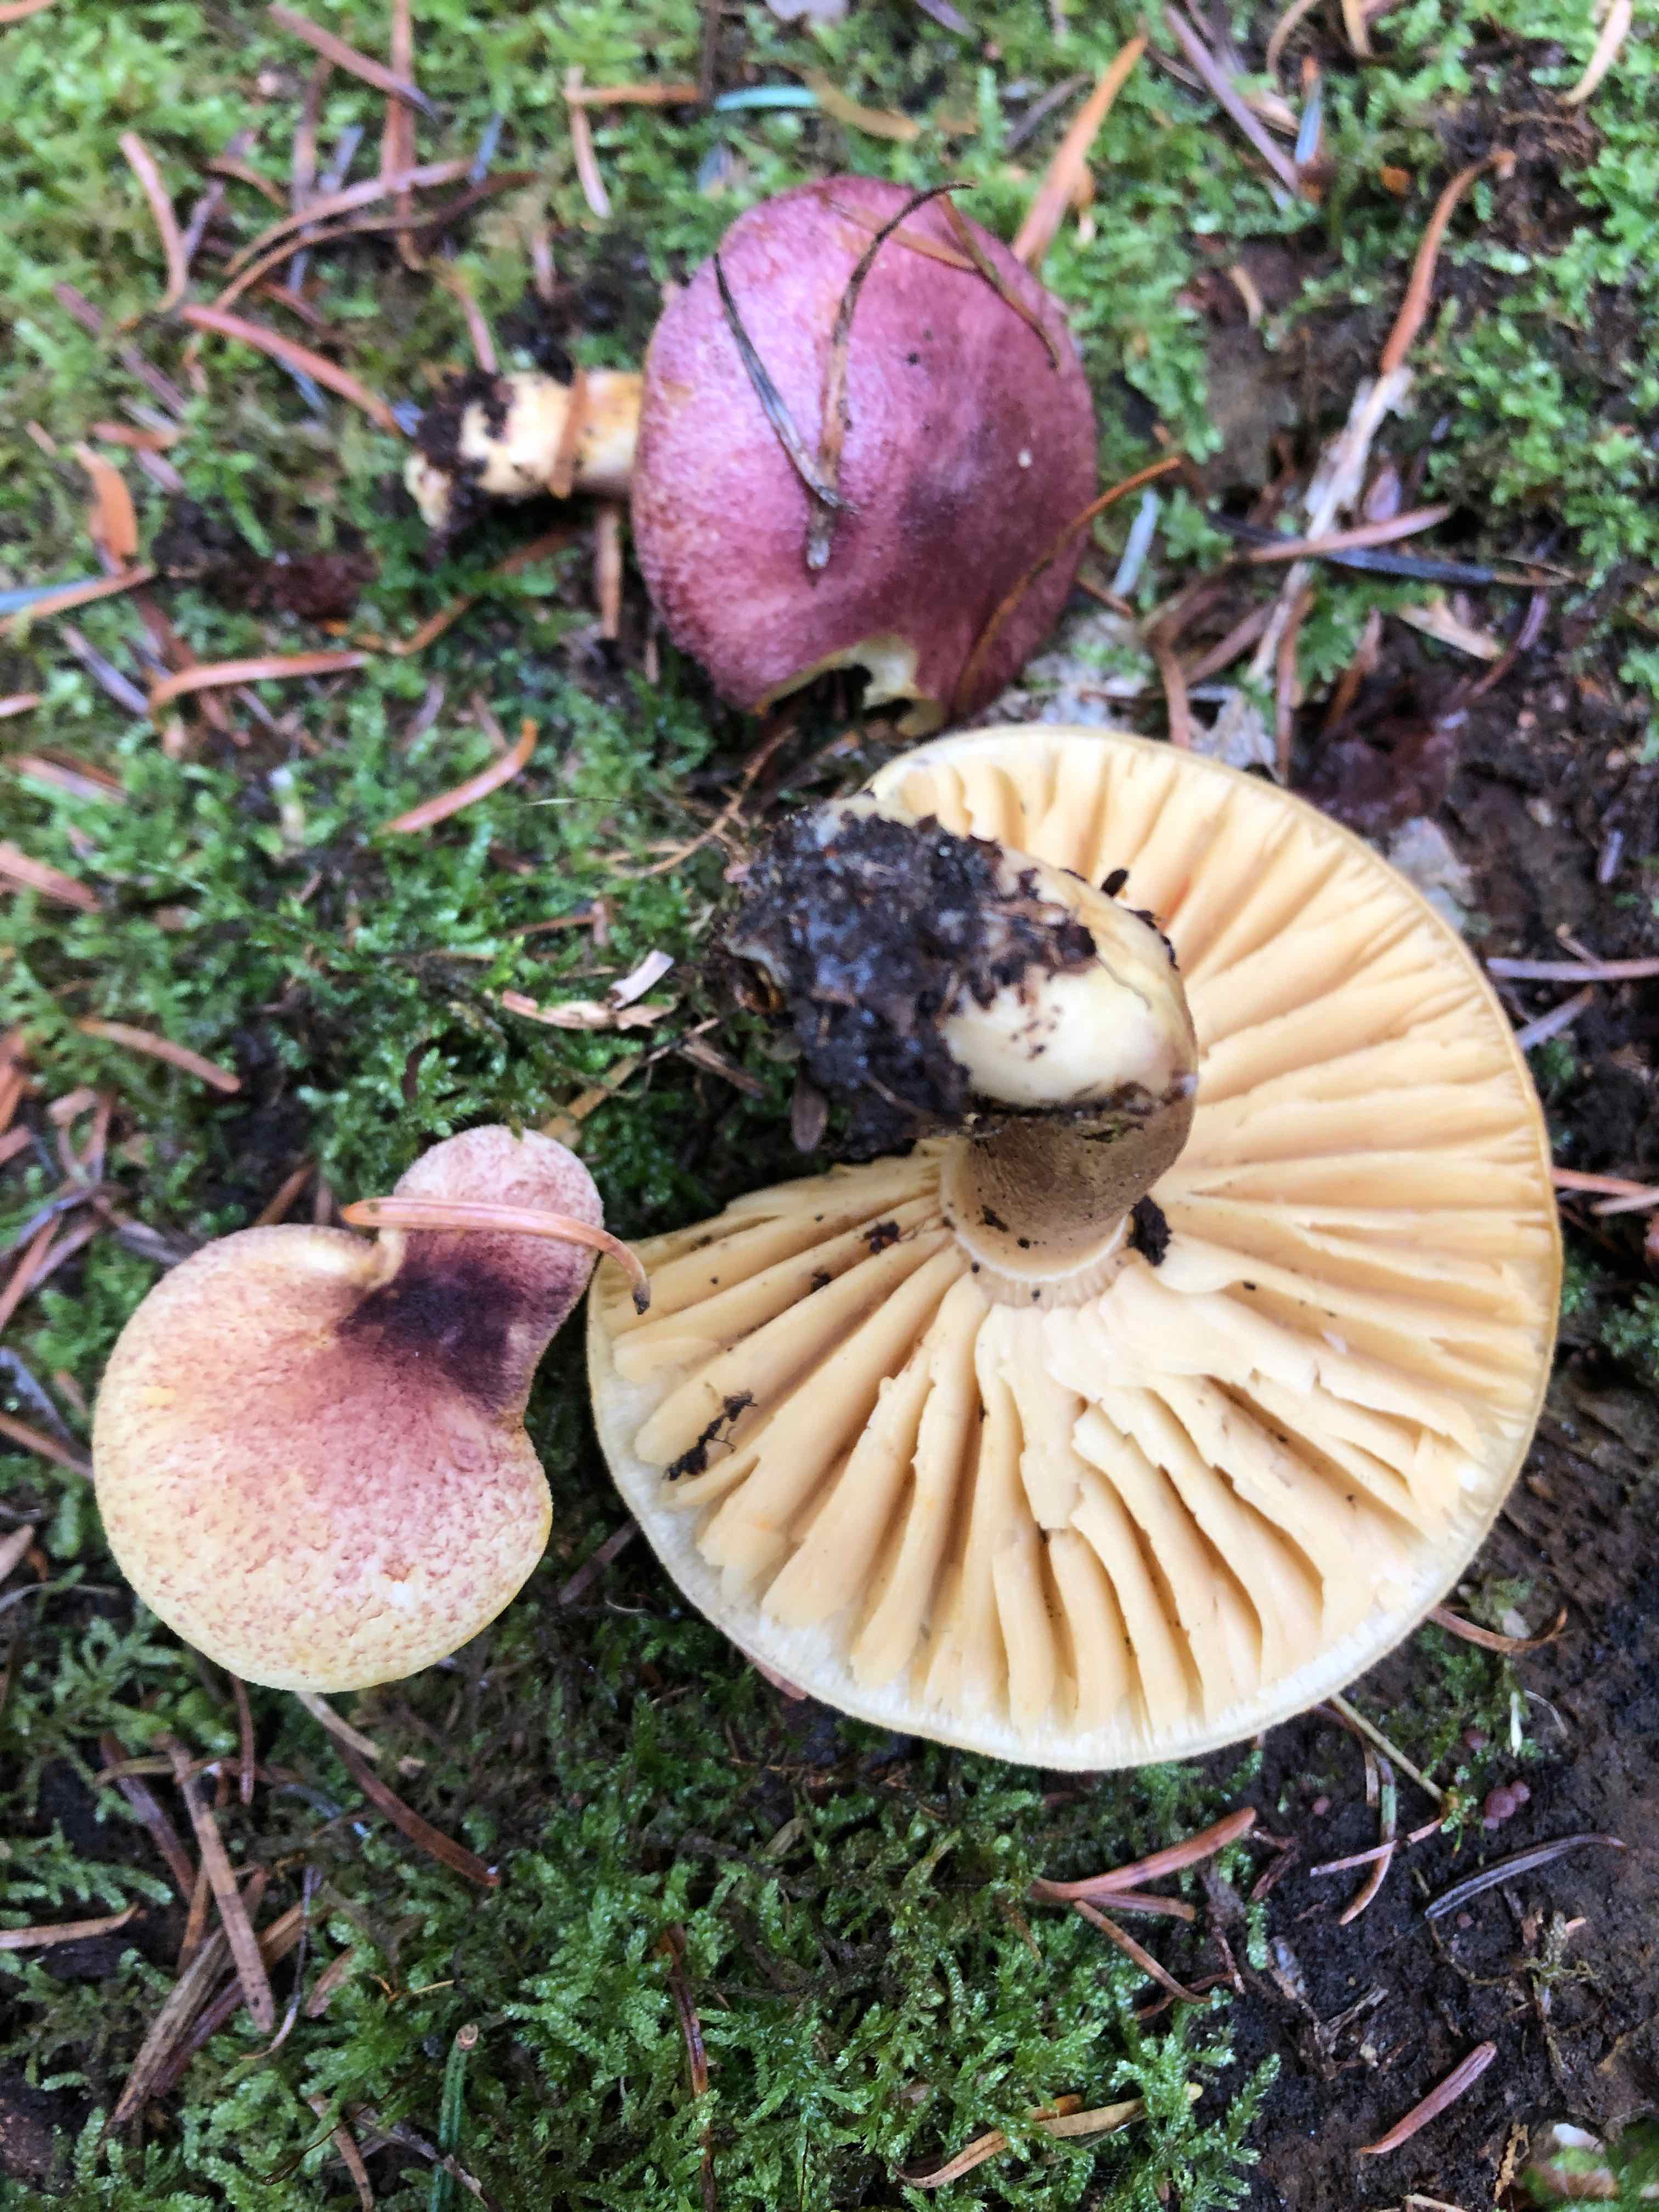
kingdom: Fungi
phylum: Basidiomycota
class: Agaricomycetes
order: Agaricales
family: Tricholomataceae
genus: Tricholomopsis
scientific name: Tricholomopsis rutilans
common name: purpur-væbnerhat
